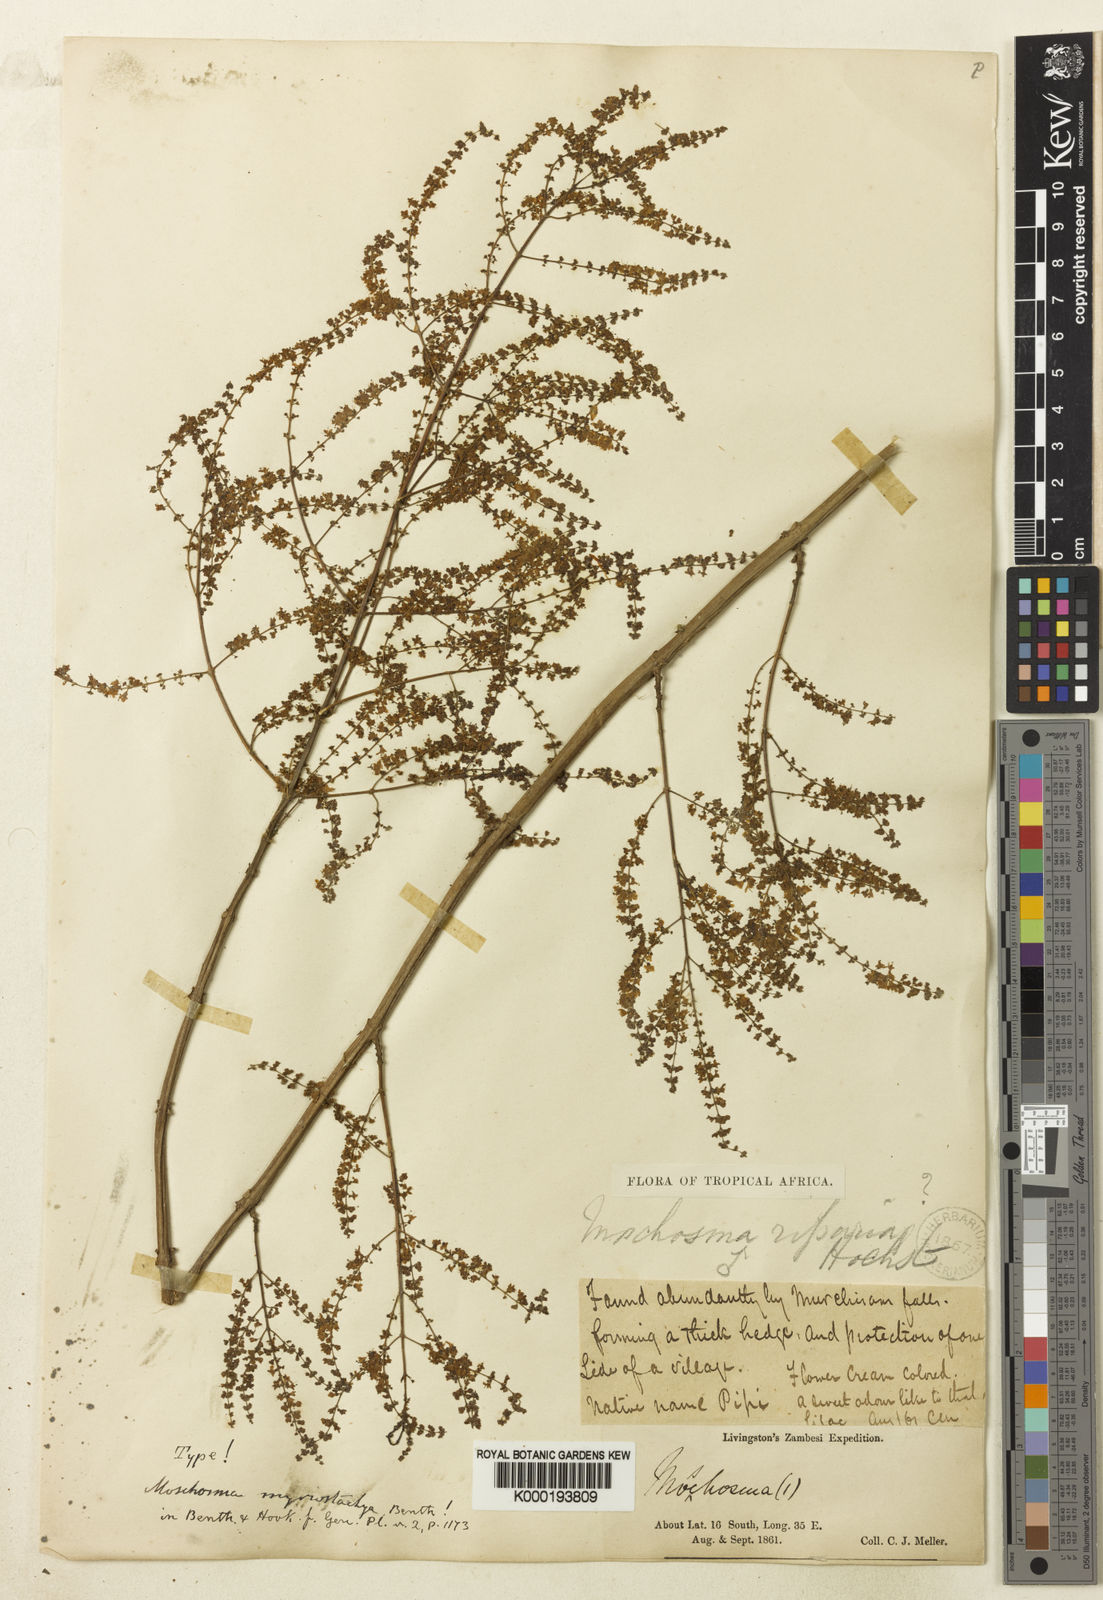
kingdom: Plantae
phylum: Tracheophyta
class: Magnoliopsida
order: Lamiales
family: Lamiaceae
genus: Tetradenia
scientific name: Tetradenia riparia
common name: Gingerbush
